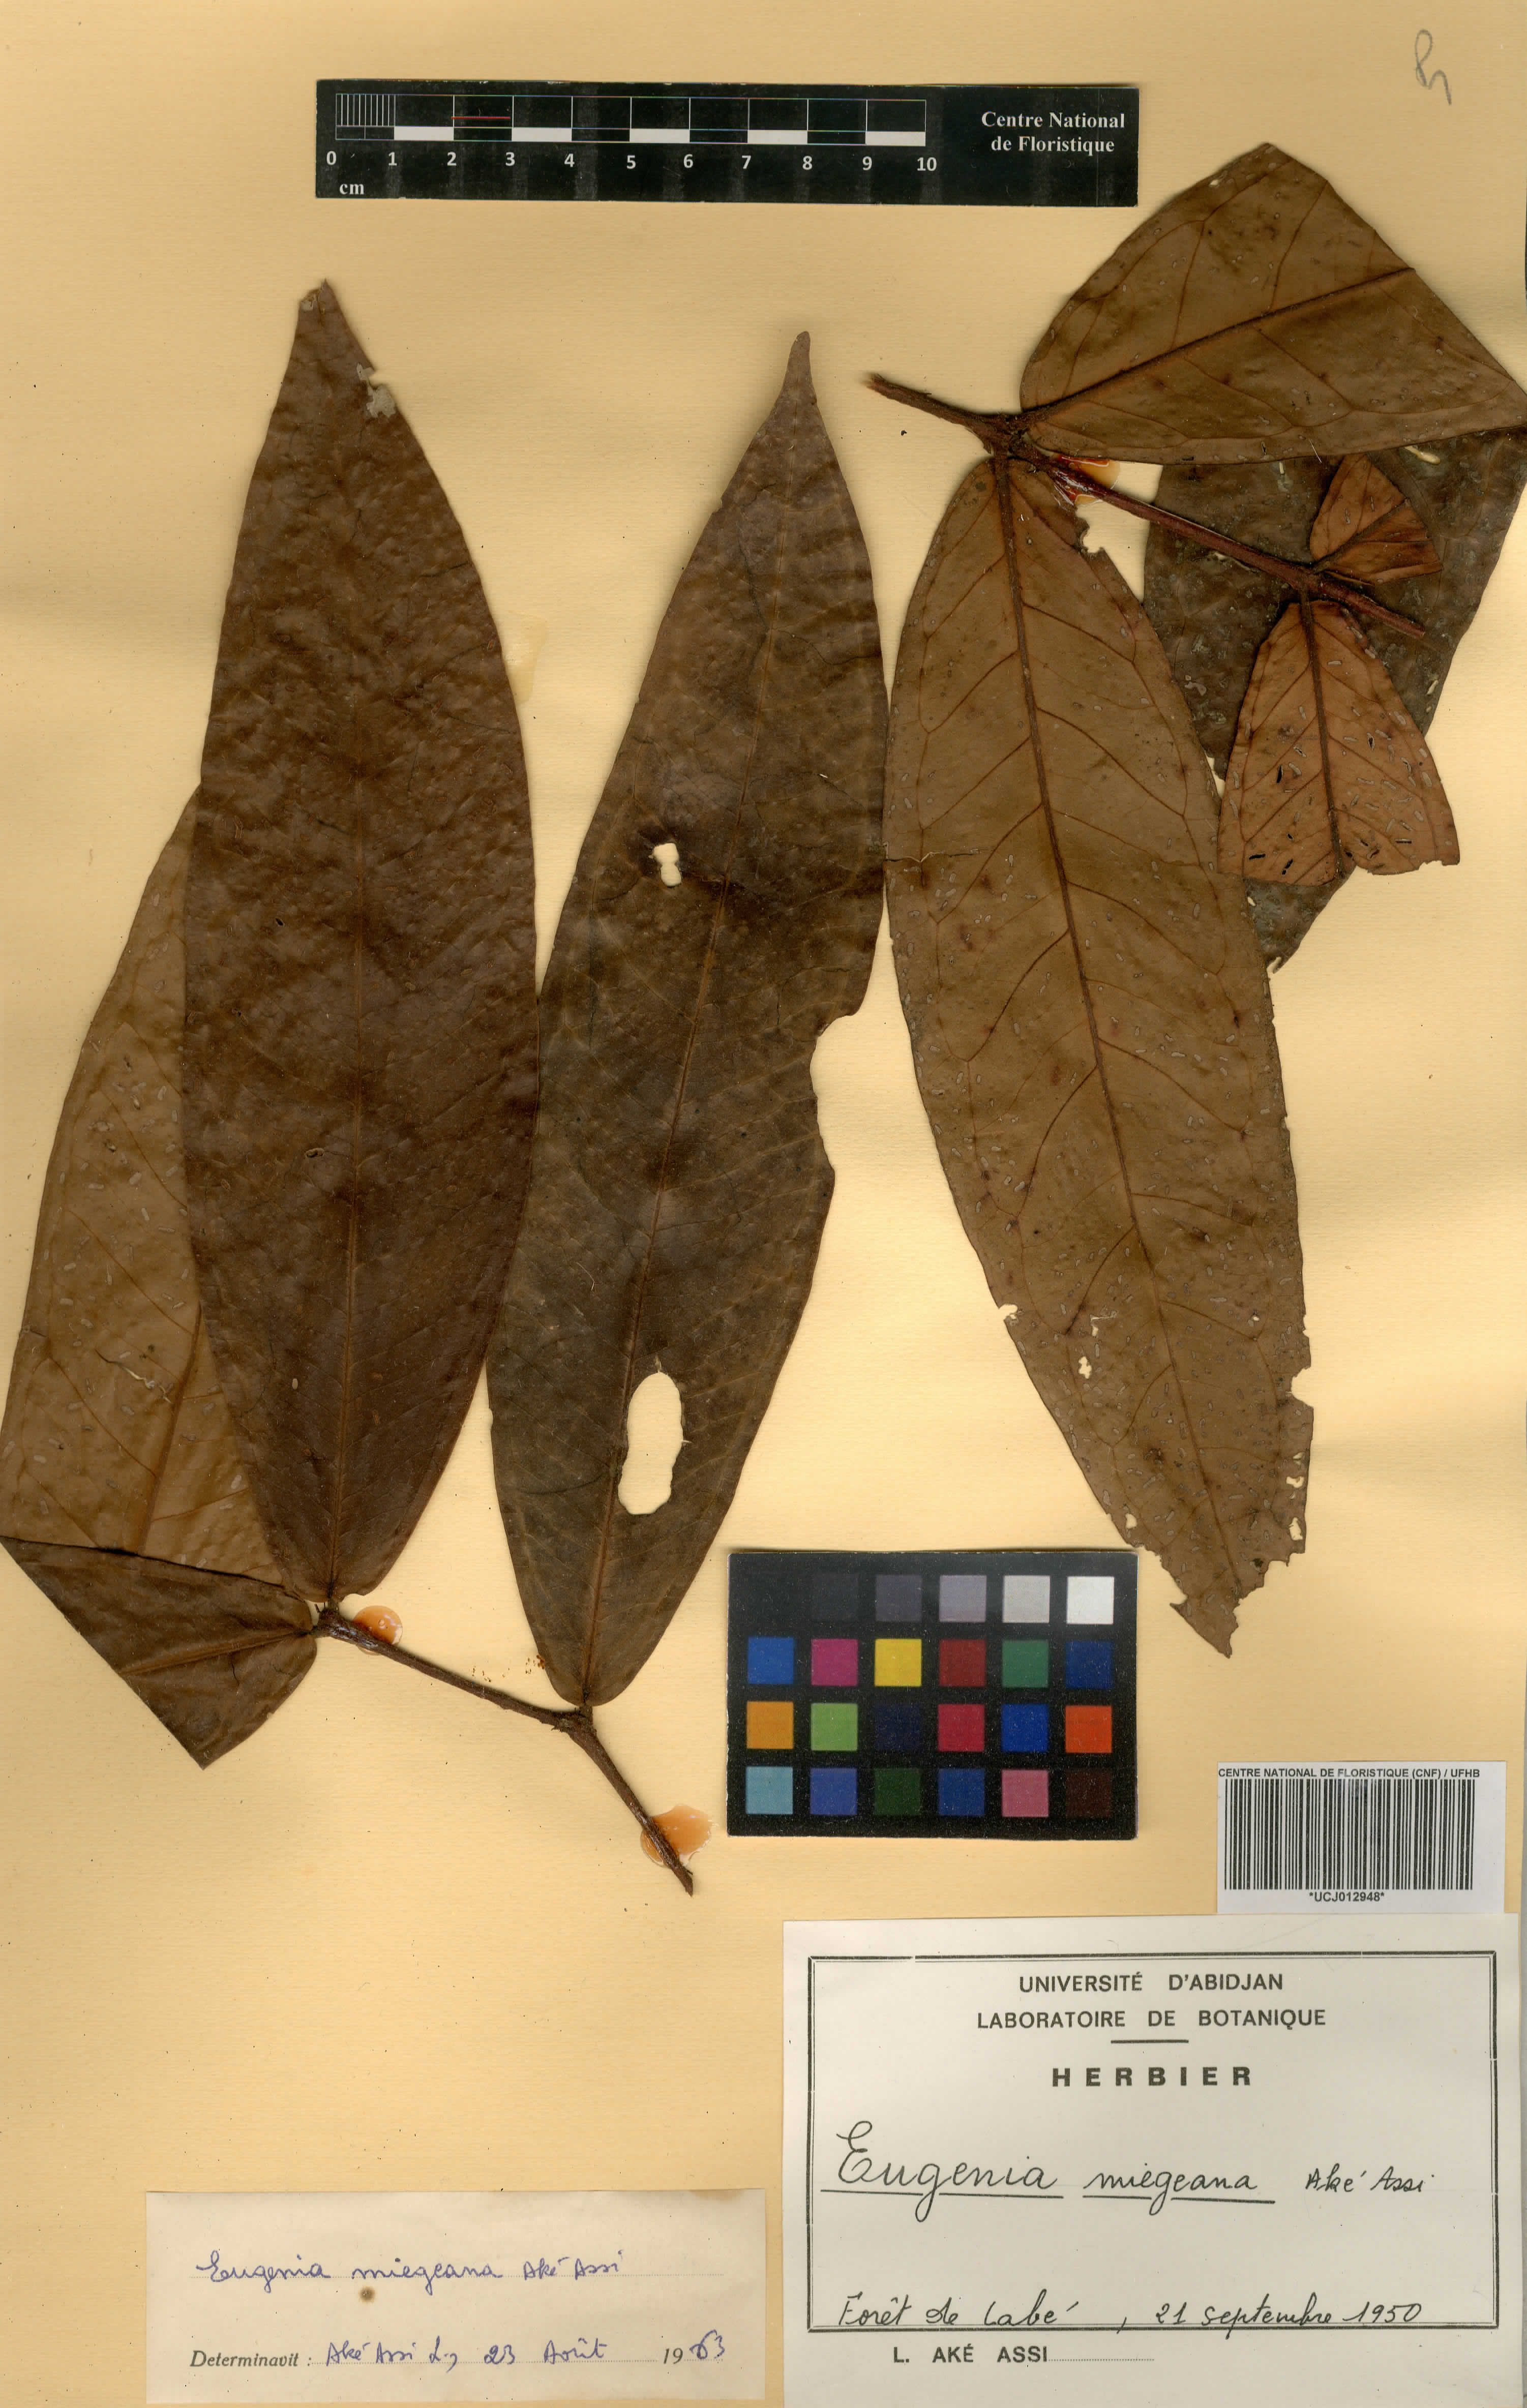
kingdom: Plantae
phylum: Tracheophyta
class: Magnoliopsida
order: Myrtales
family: Myrtaceae
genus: Eugenia
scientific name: Eugenia gabonensis
